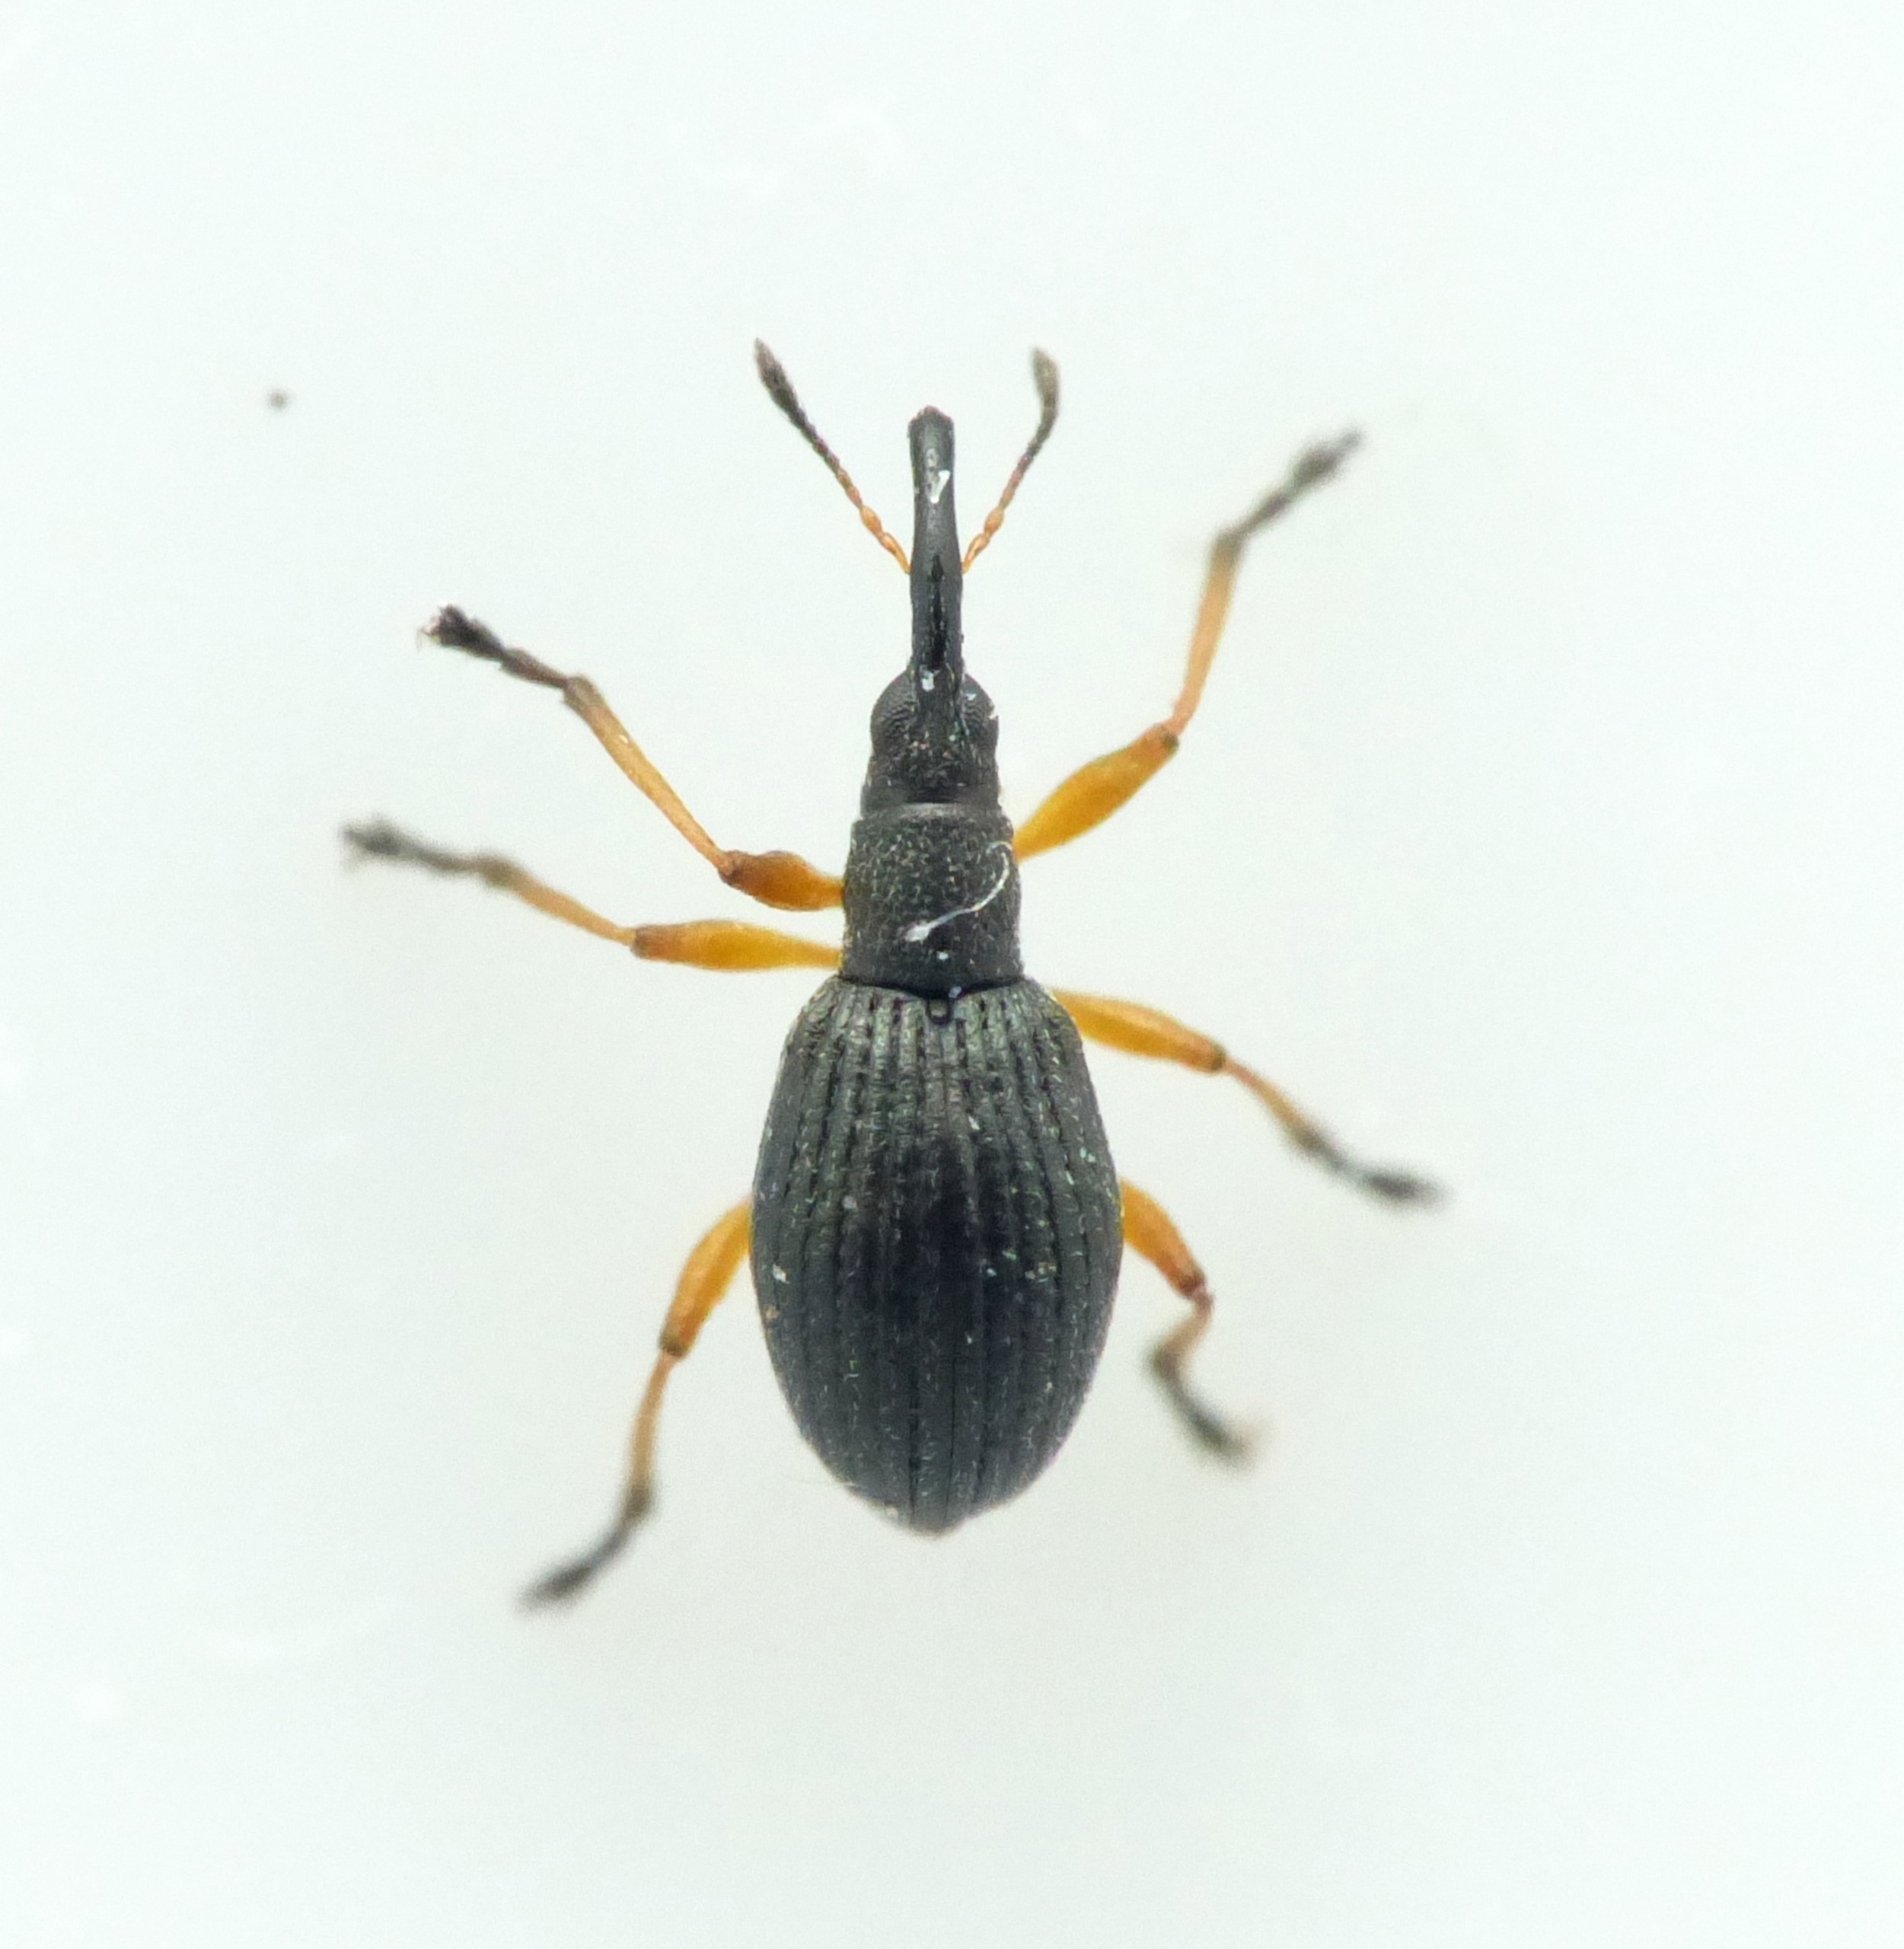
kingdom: Animalia
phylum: Arthropoda
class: Insecta
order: Coleoptera
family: Apionidae
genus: Protapion
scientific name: Protapion fulvipes
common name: Hvidkløversnudebille
